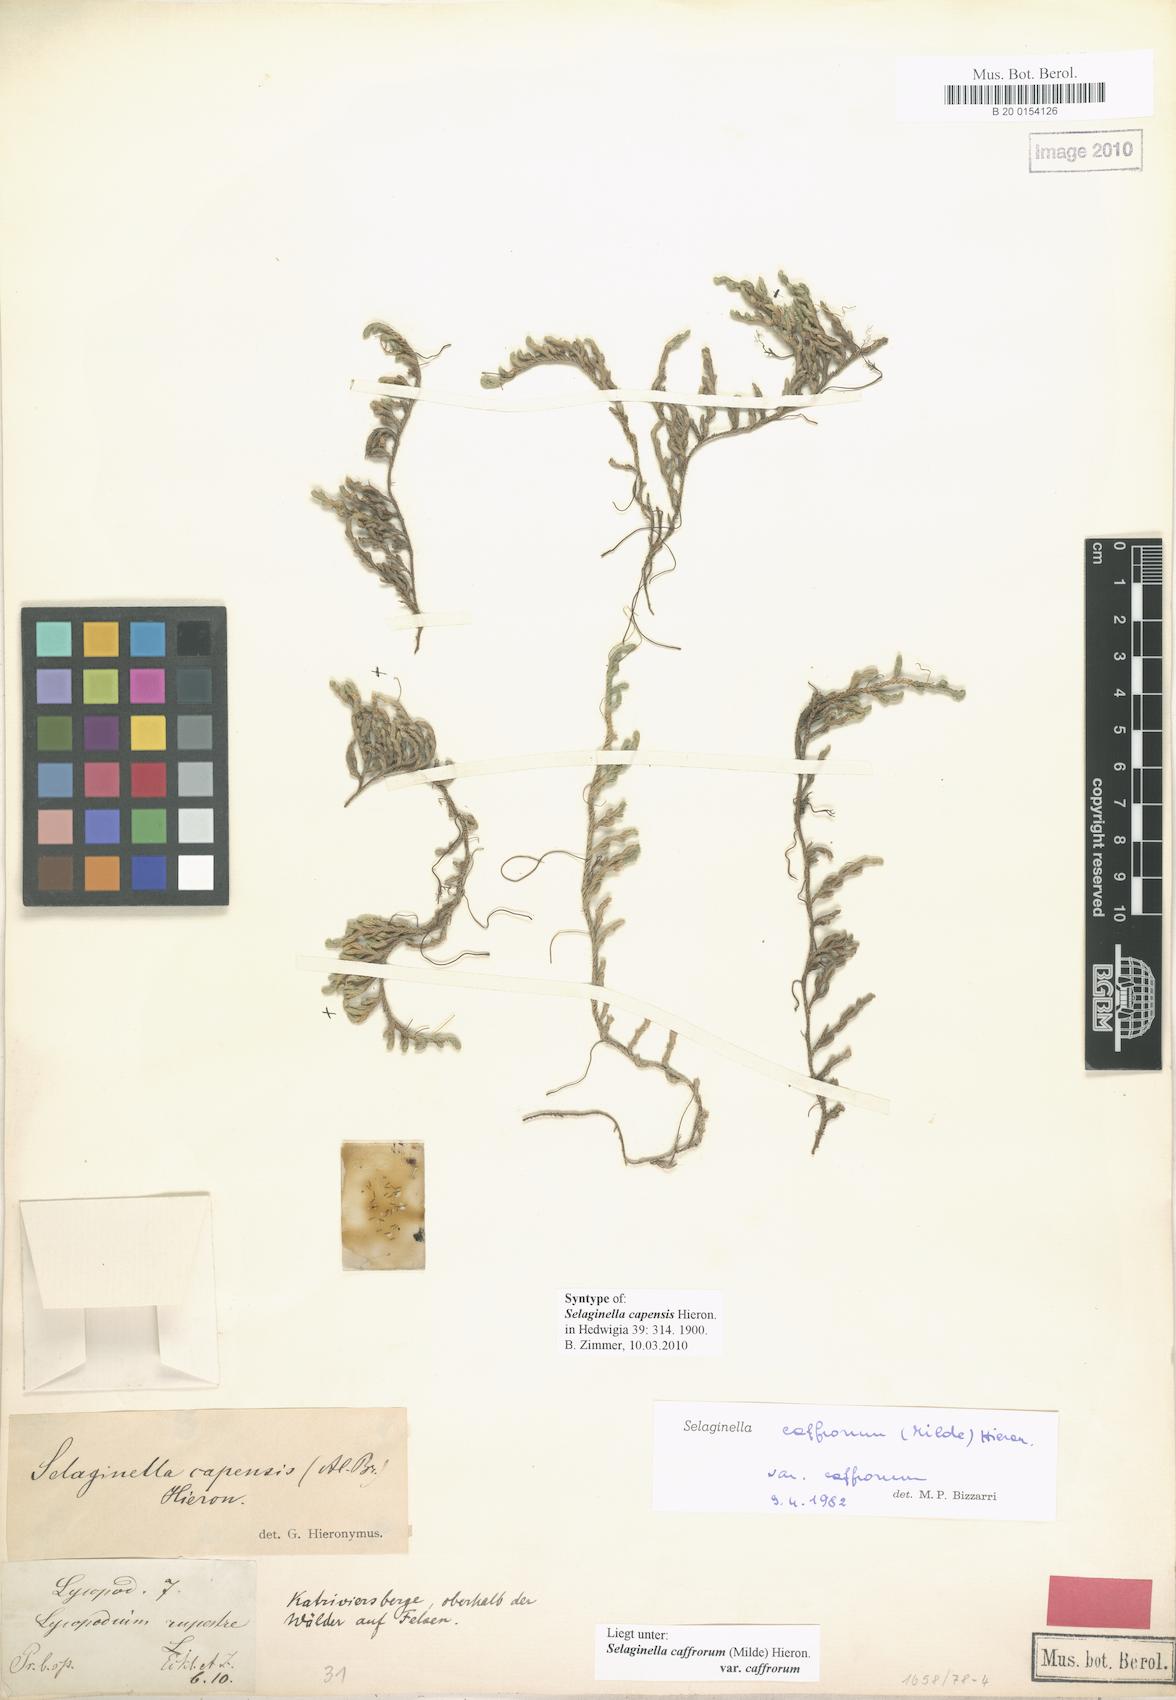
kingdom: Plantae
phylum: Tracheophyta
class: Lycopodiopsida
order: Selaginellales
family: Selaginellaceae
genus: Selaginella
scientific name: Selaginella caffrorum
